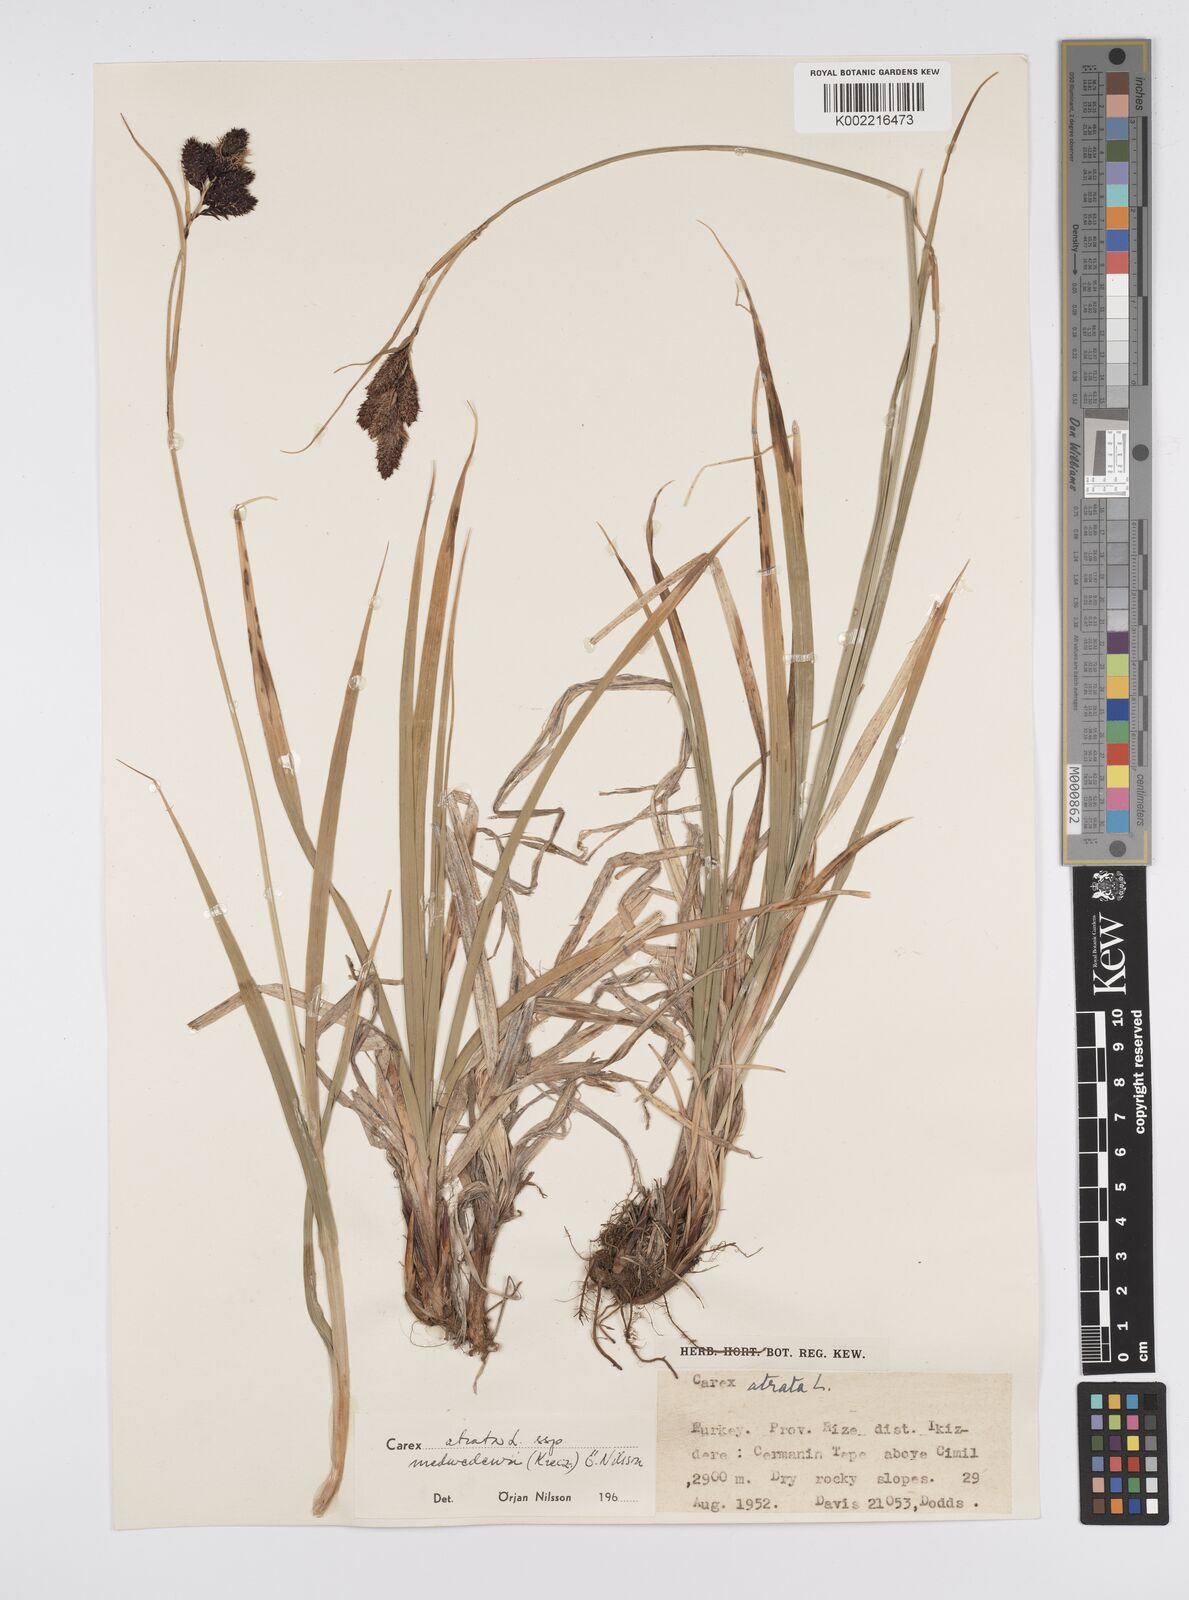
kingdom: Plantae
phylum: Tracheophyta
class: Liliopsida
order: Poales
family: Cyperaceae
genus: Carex
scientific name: Carex atrata
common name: Black alpine sedge
